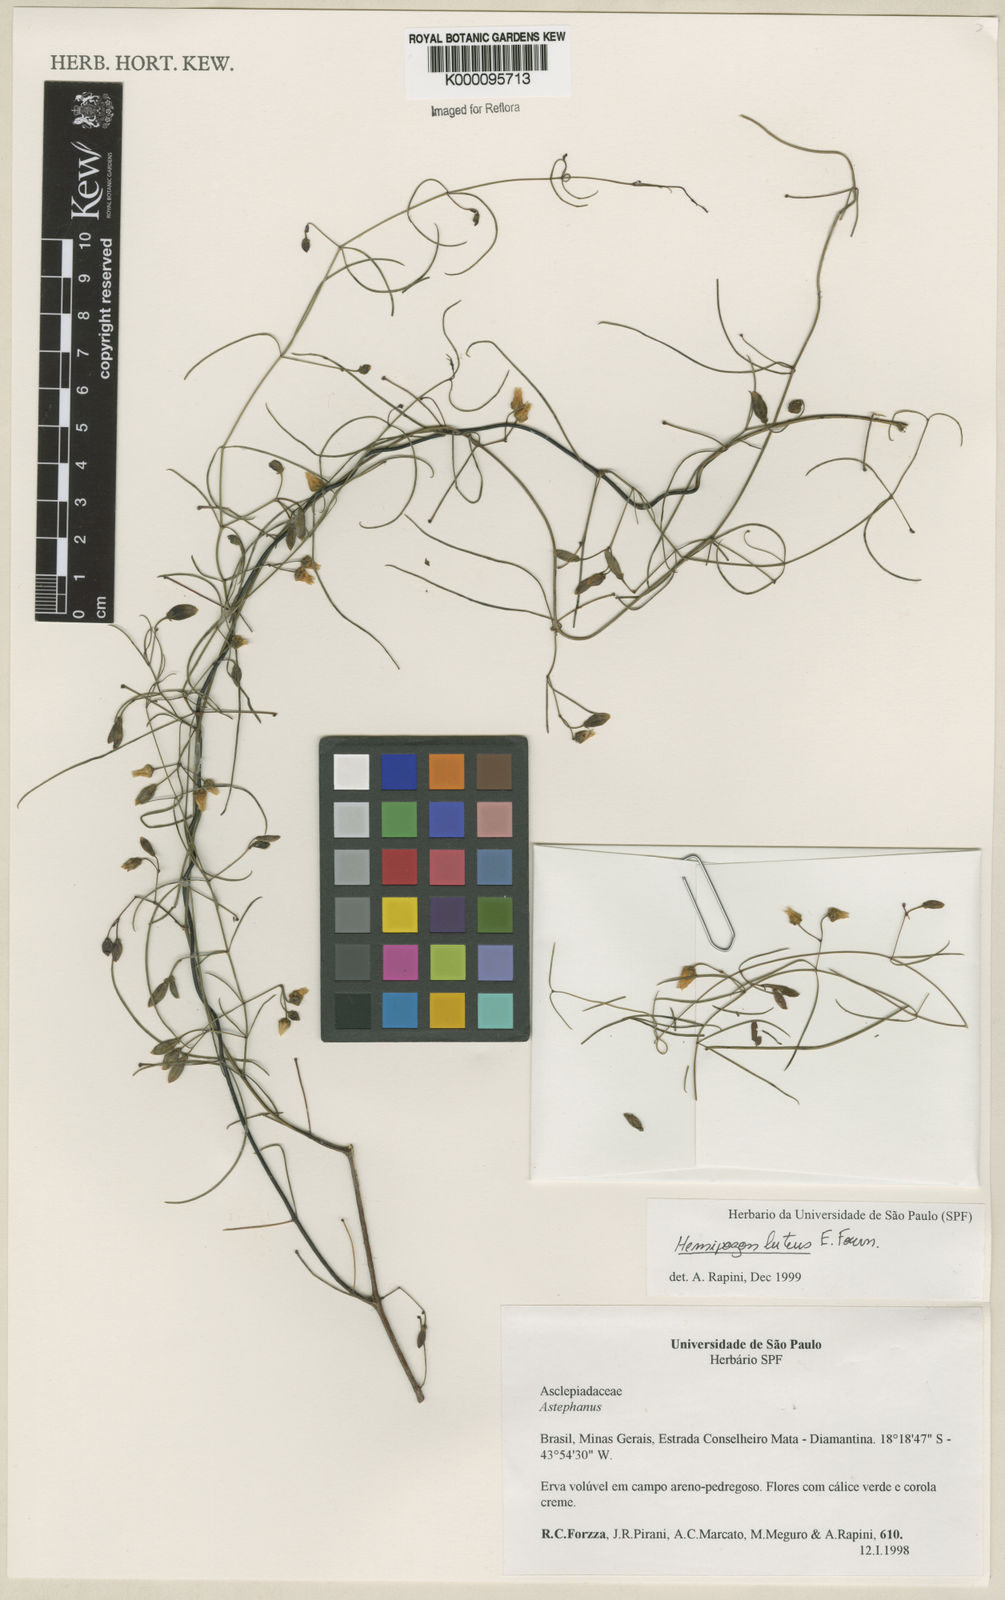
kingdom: Plantae
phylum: Tracheophyta
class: Magnoliopsida
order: Gentianales
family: Apocynaceae
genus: Morilloa
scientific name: Morilloa
